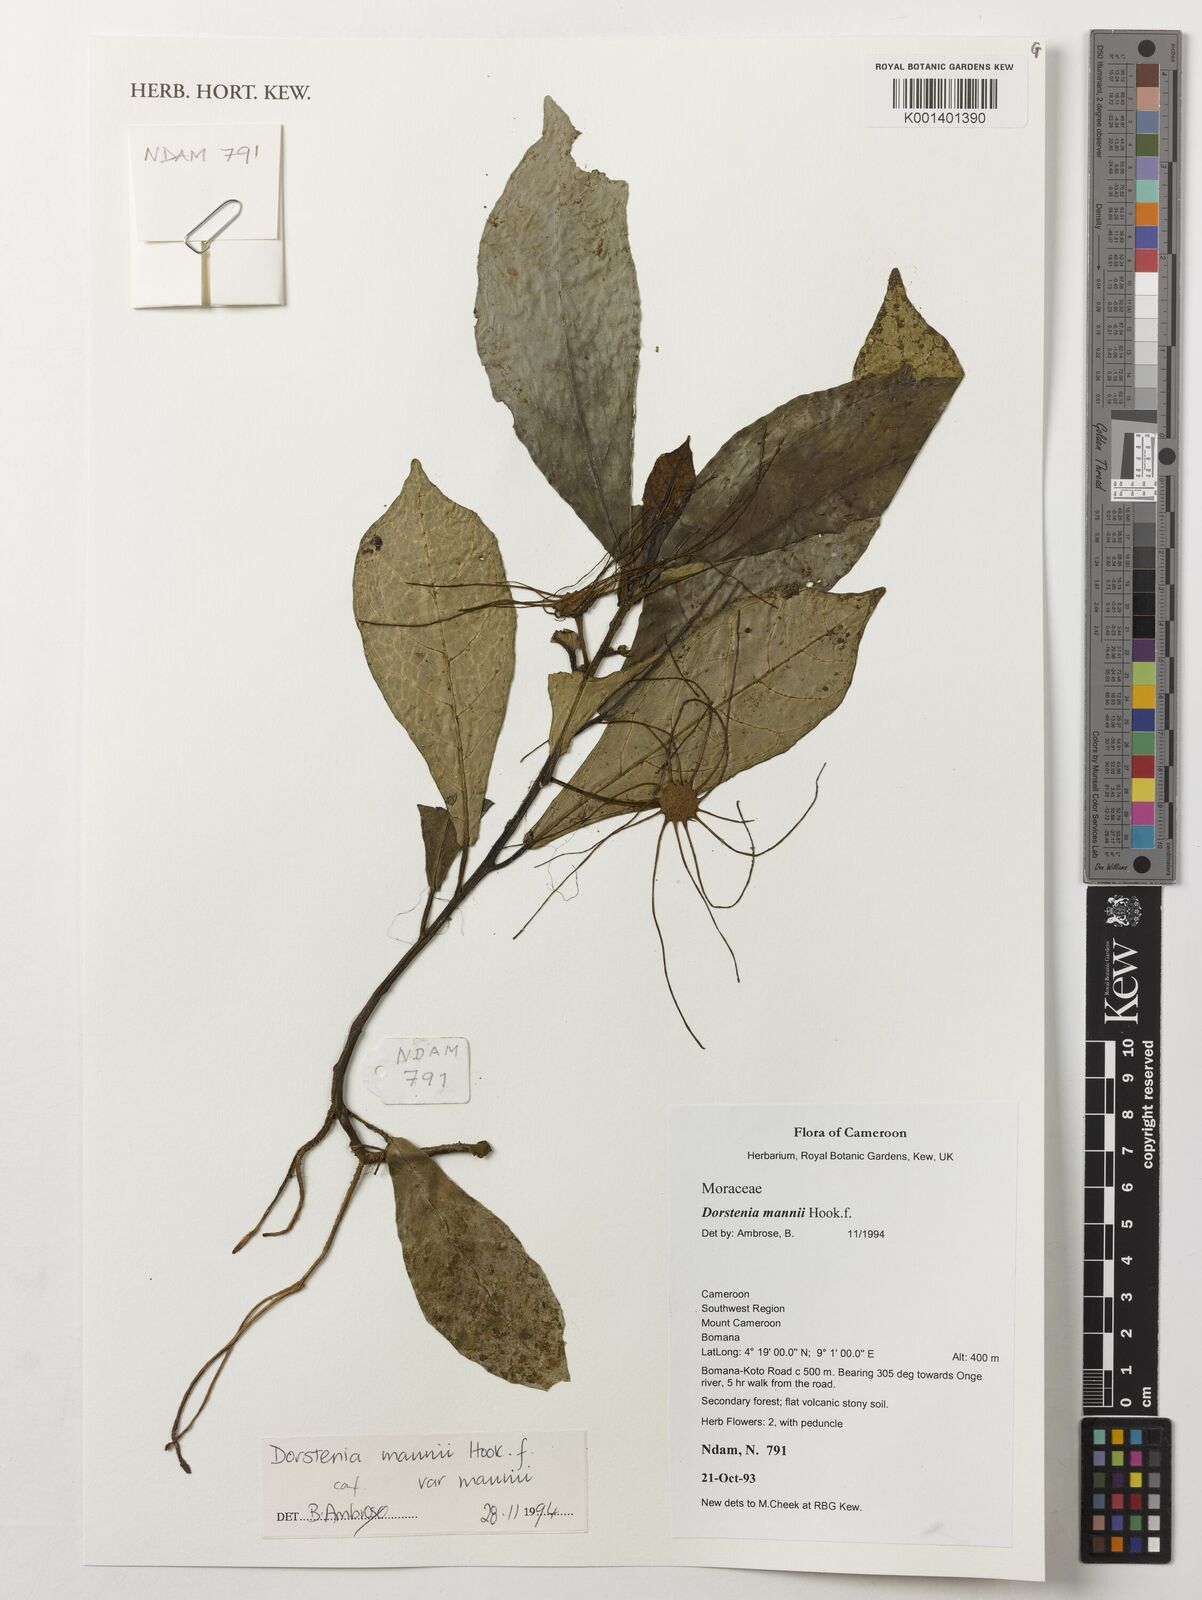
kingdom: Plantae
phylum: Tracheophyta
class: Magnoliopsida
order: Rosales
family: Moraceae
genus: Dorstenia
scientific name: Dorstenia mannii
